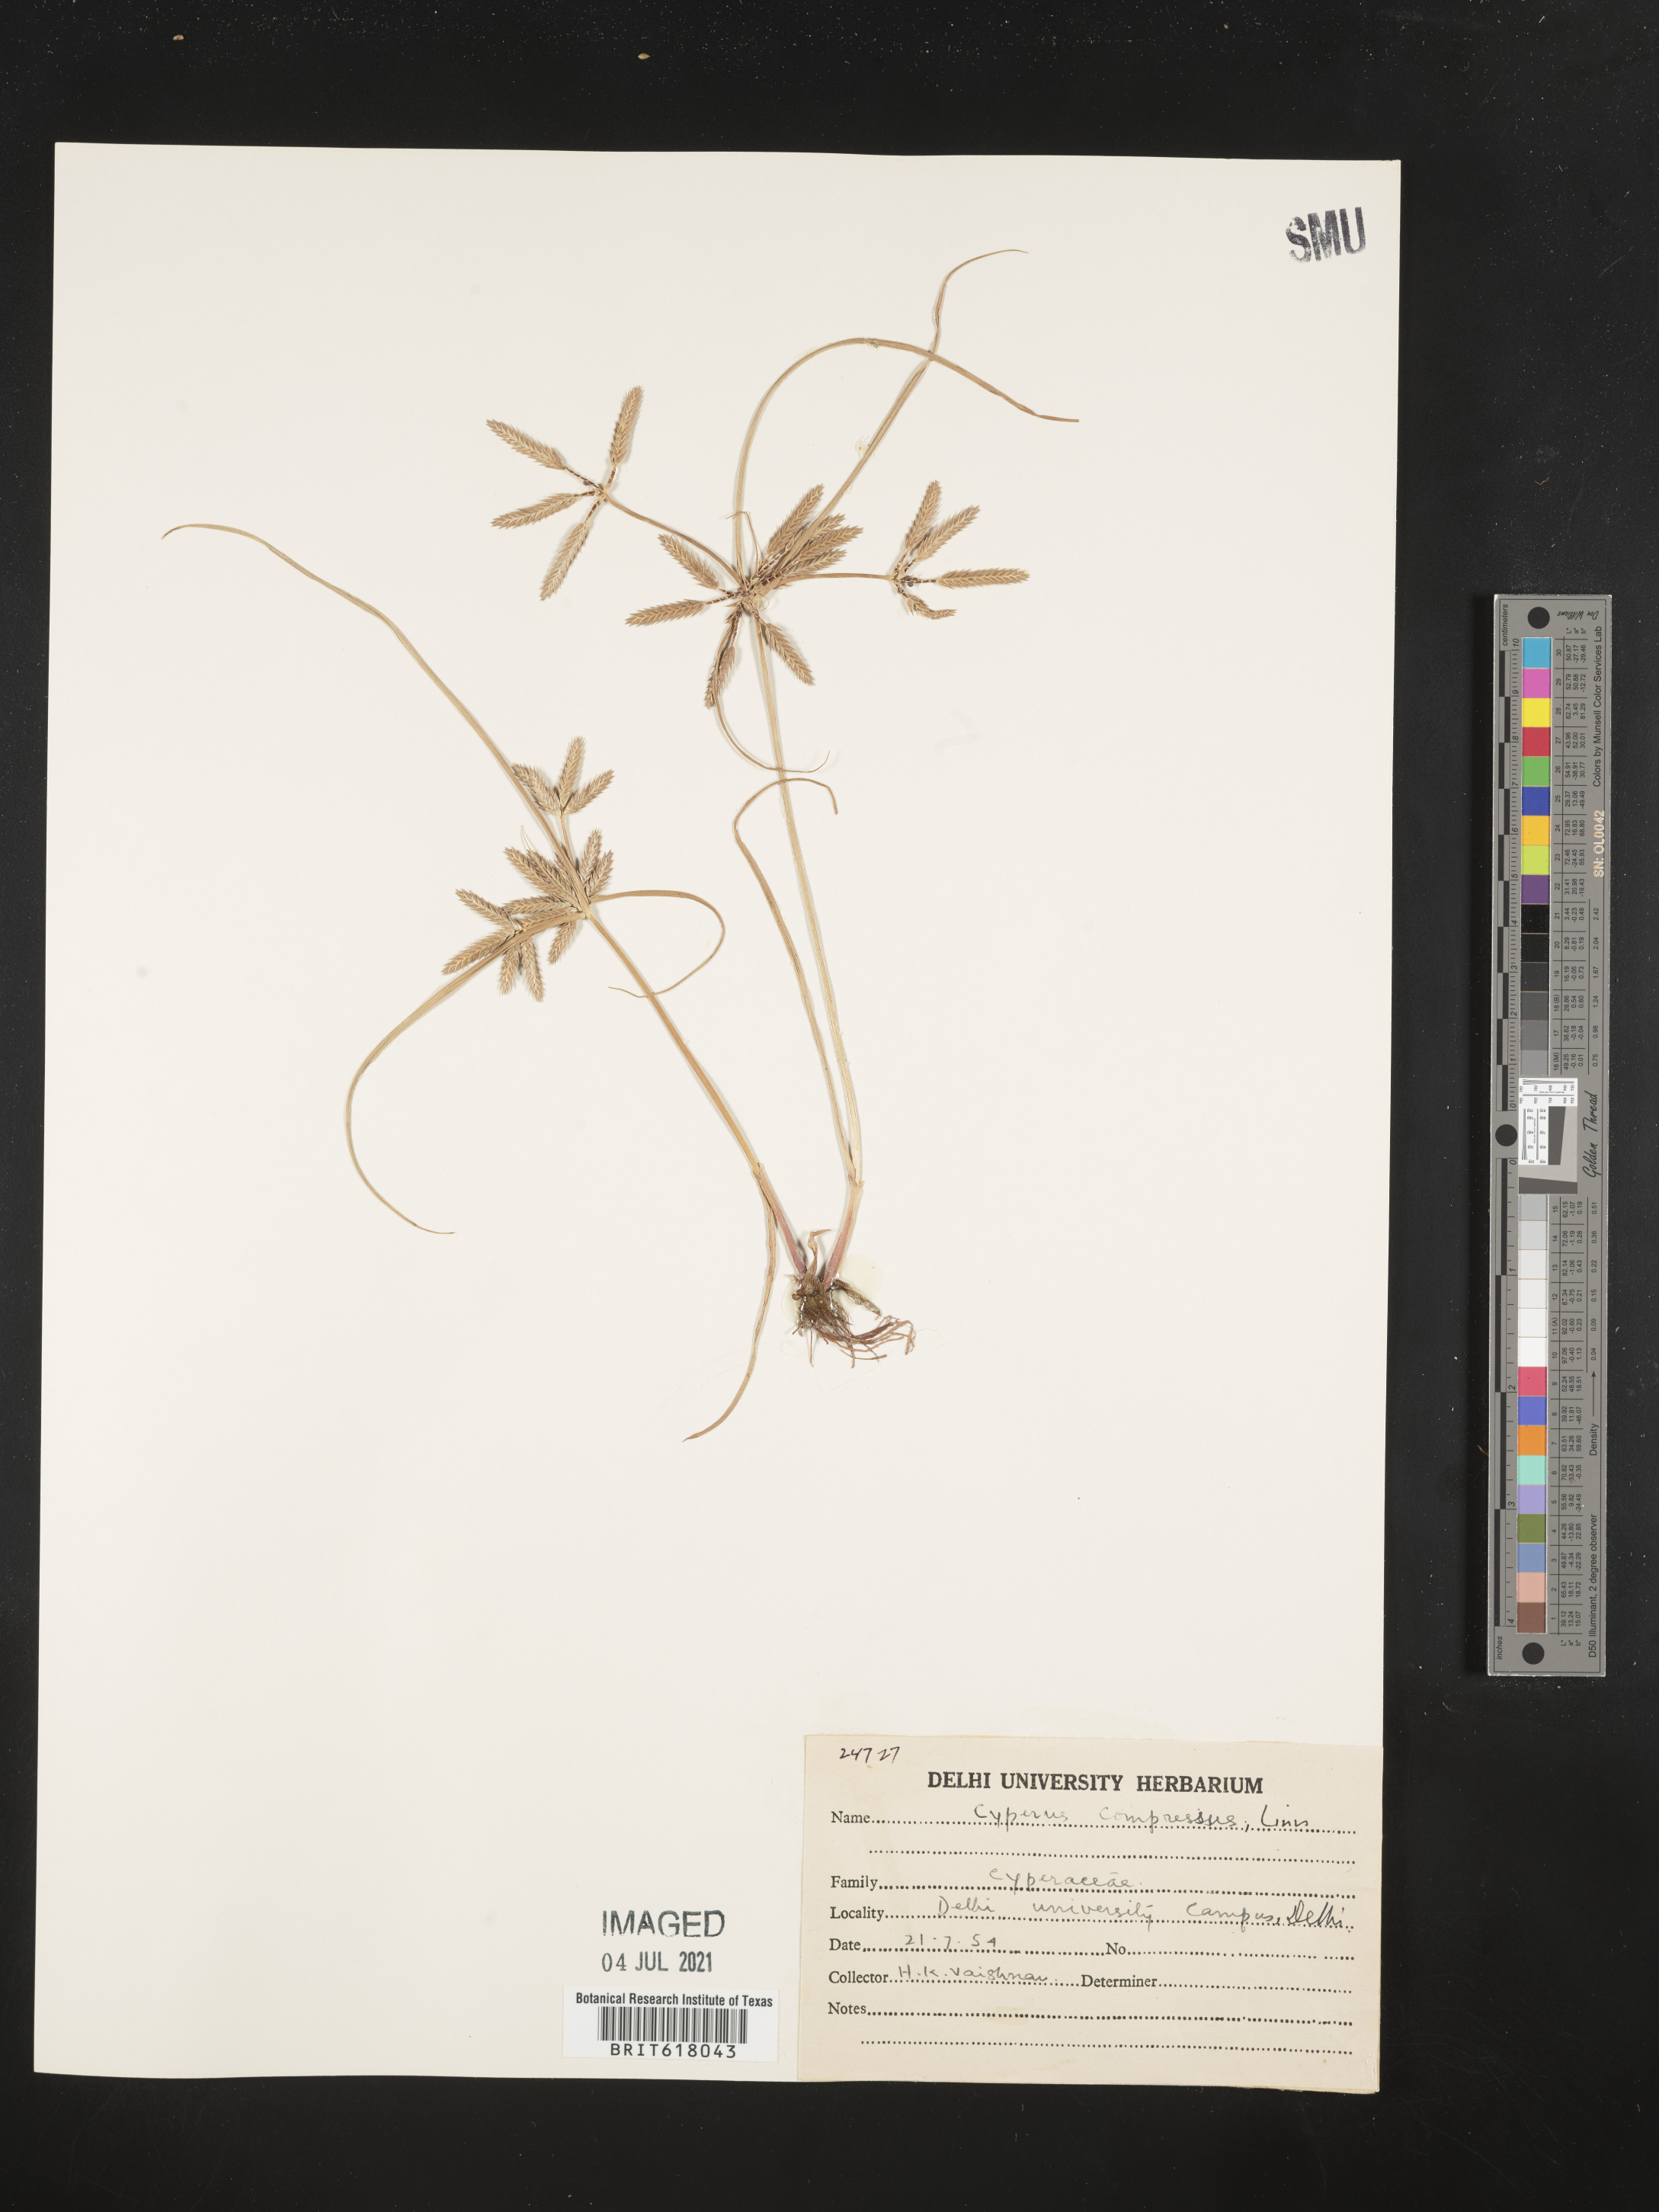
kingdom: Plantae
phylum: Tracheophyta
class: Liliopsida
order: Poales
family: Cyperaceae
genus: Cyperus
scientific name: Cyperus compressus
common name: Poorland flatsedge
